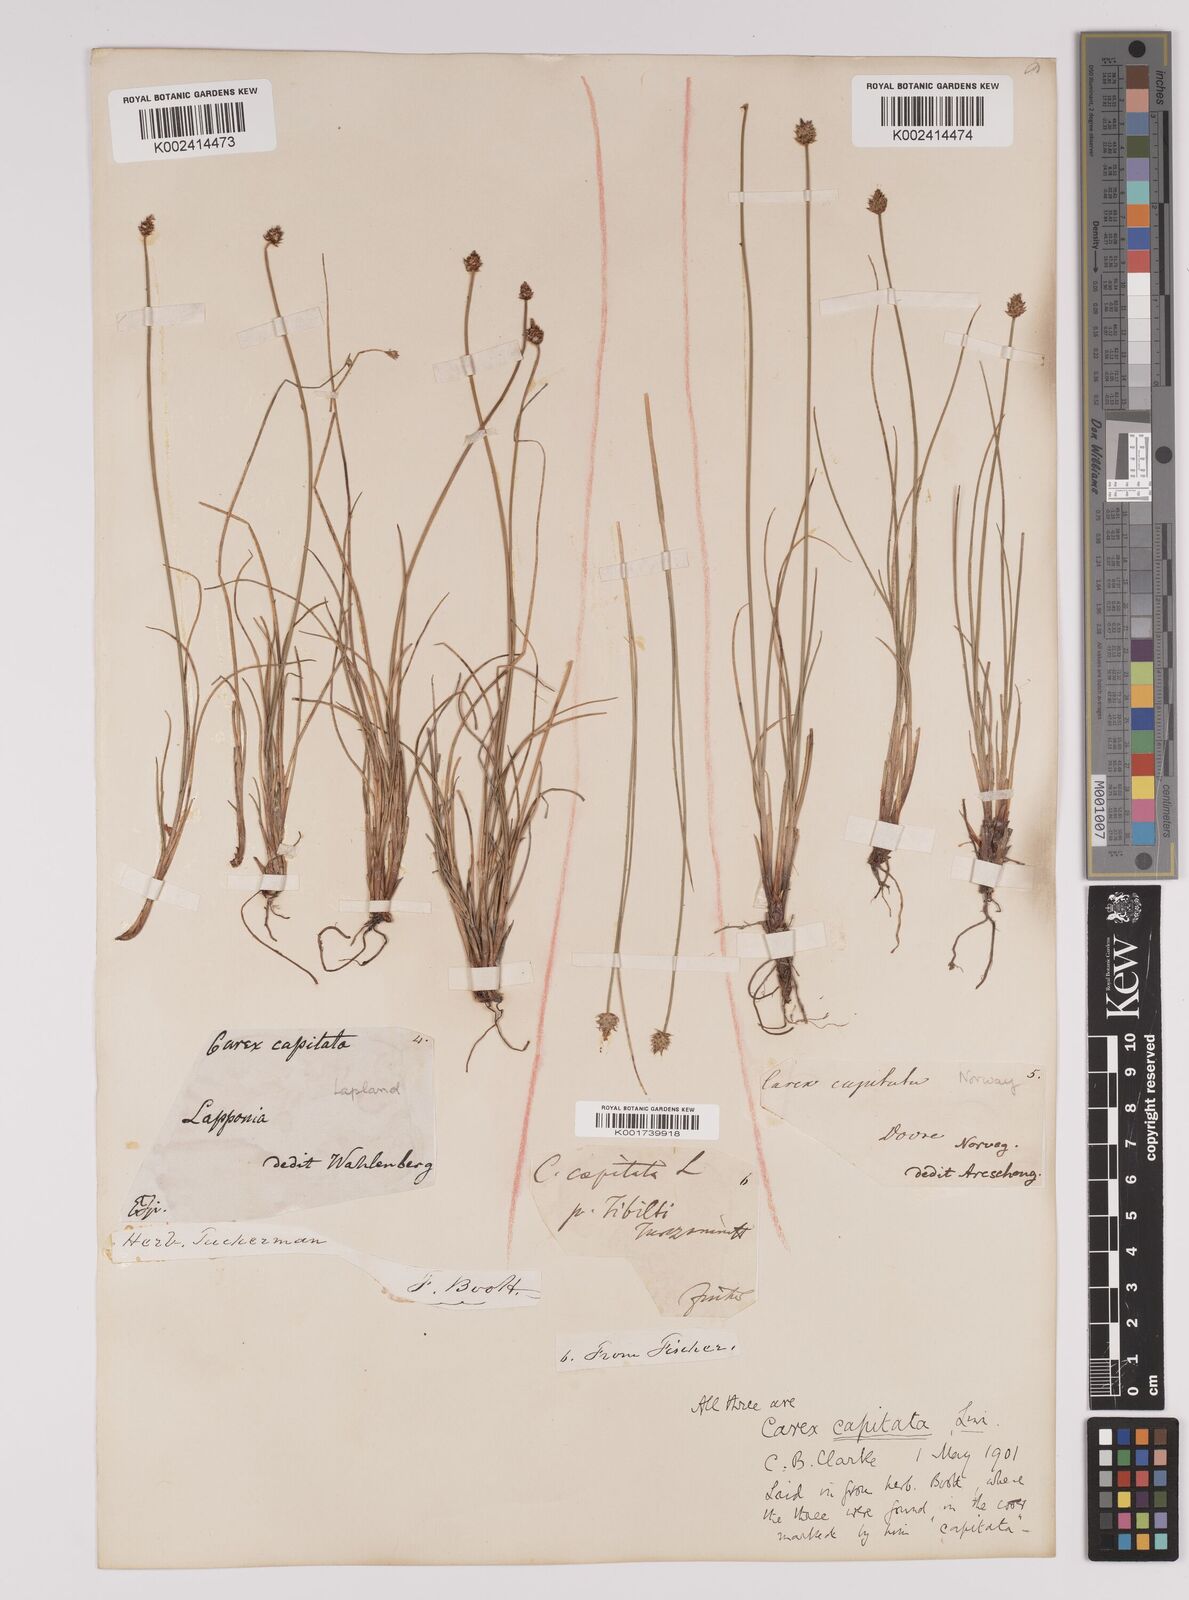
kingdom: Plantae
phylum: Tracheophyta
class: Liliopsida
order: Poales
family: Cyperaceae
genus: Carex
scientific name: Carex capitata
